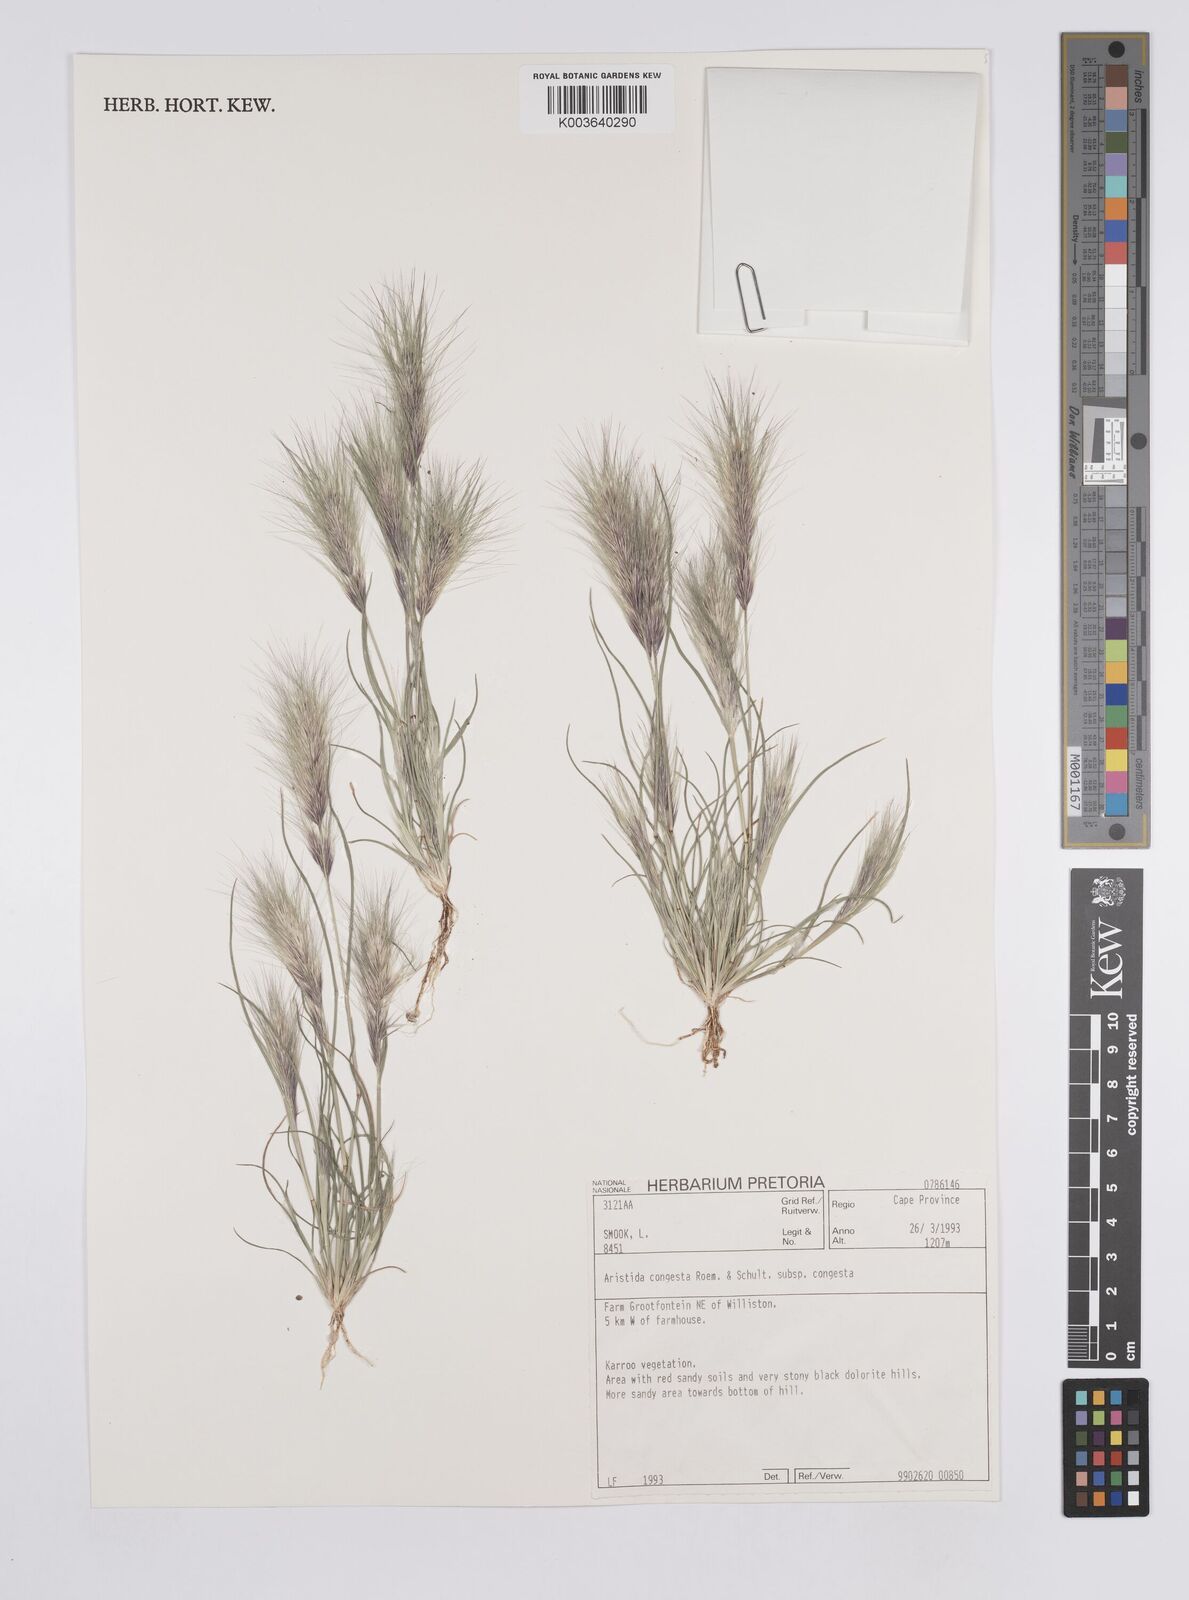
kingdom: Plantae
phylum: Tracheophyta
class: Liliopsida
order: Poales
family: Poaceae
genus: Aristida
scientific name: Aristida congesta
